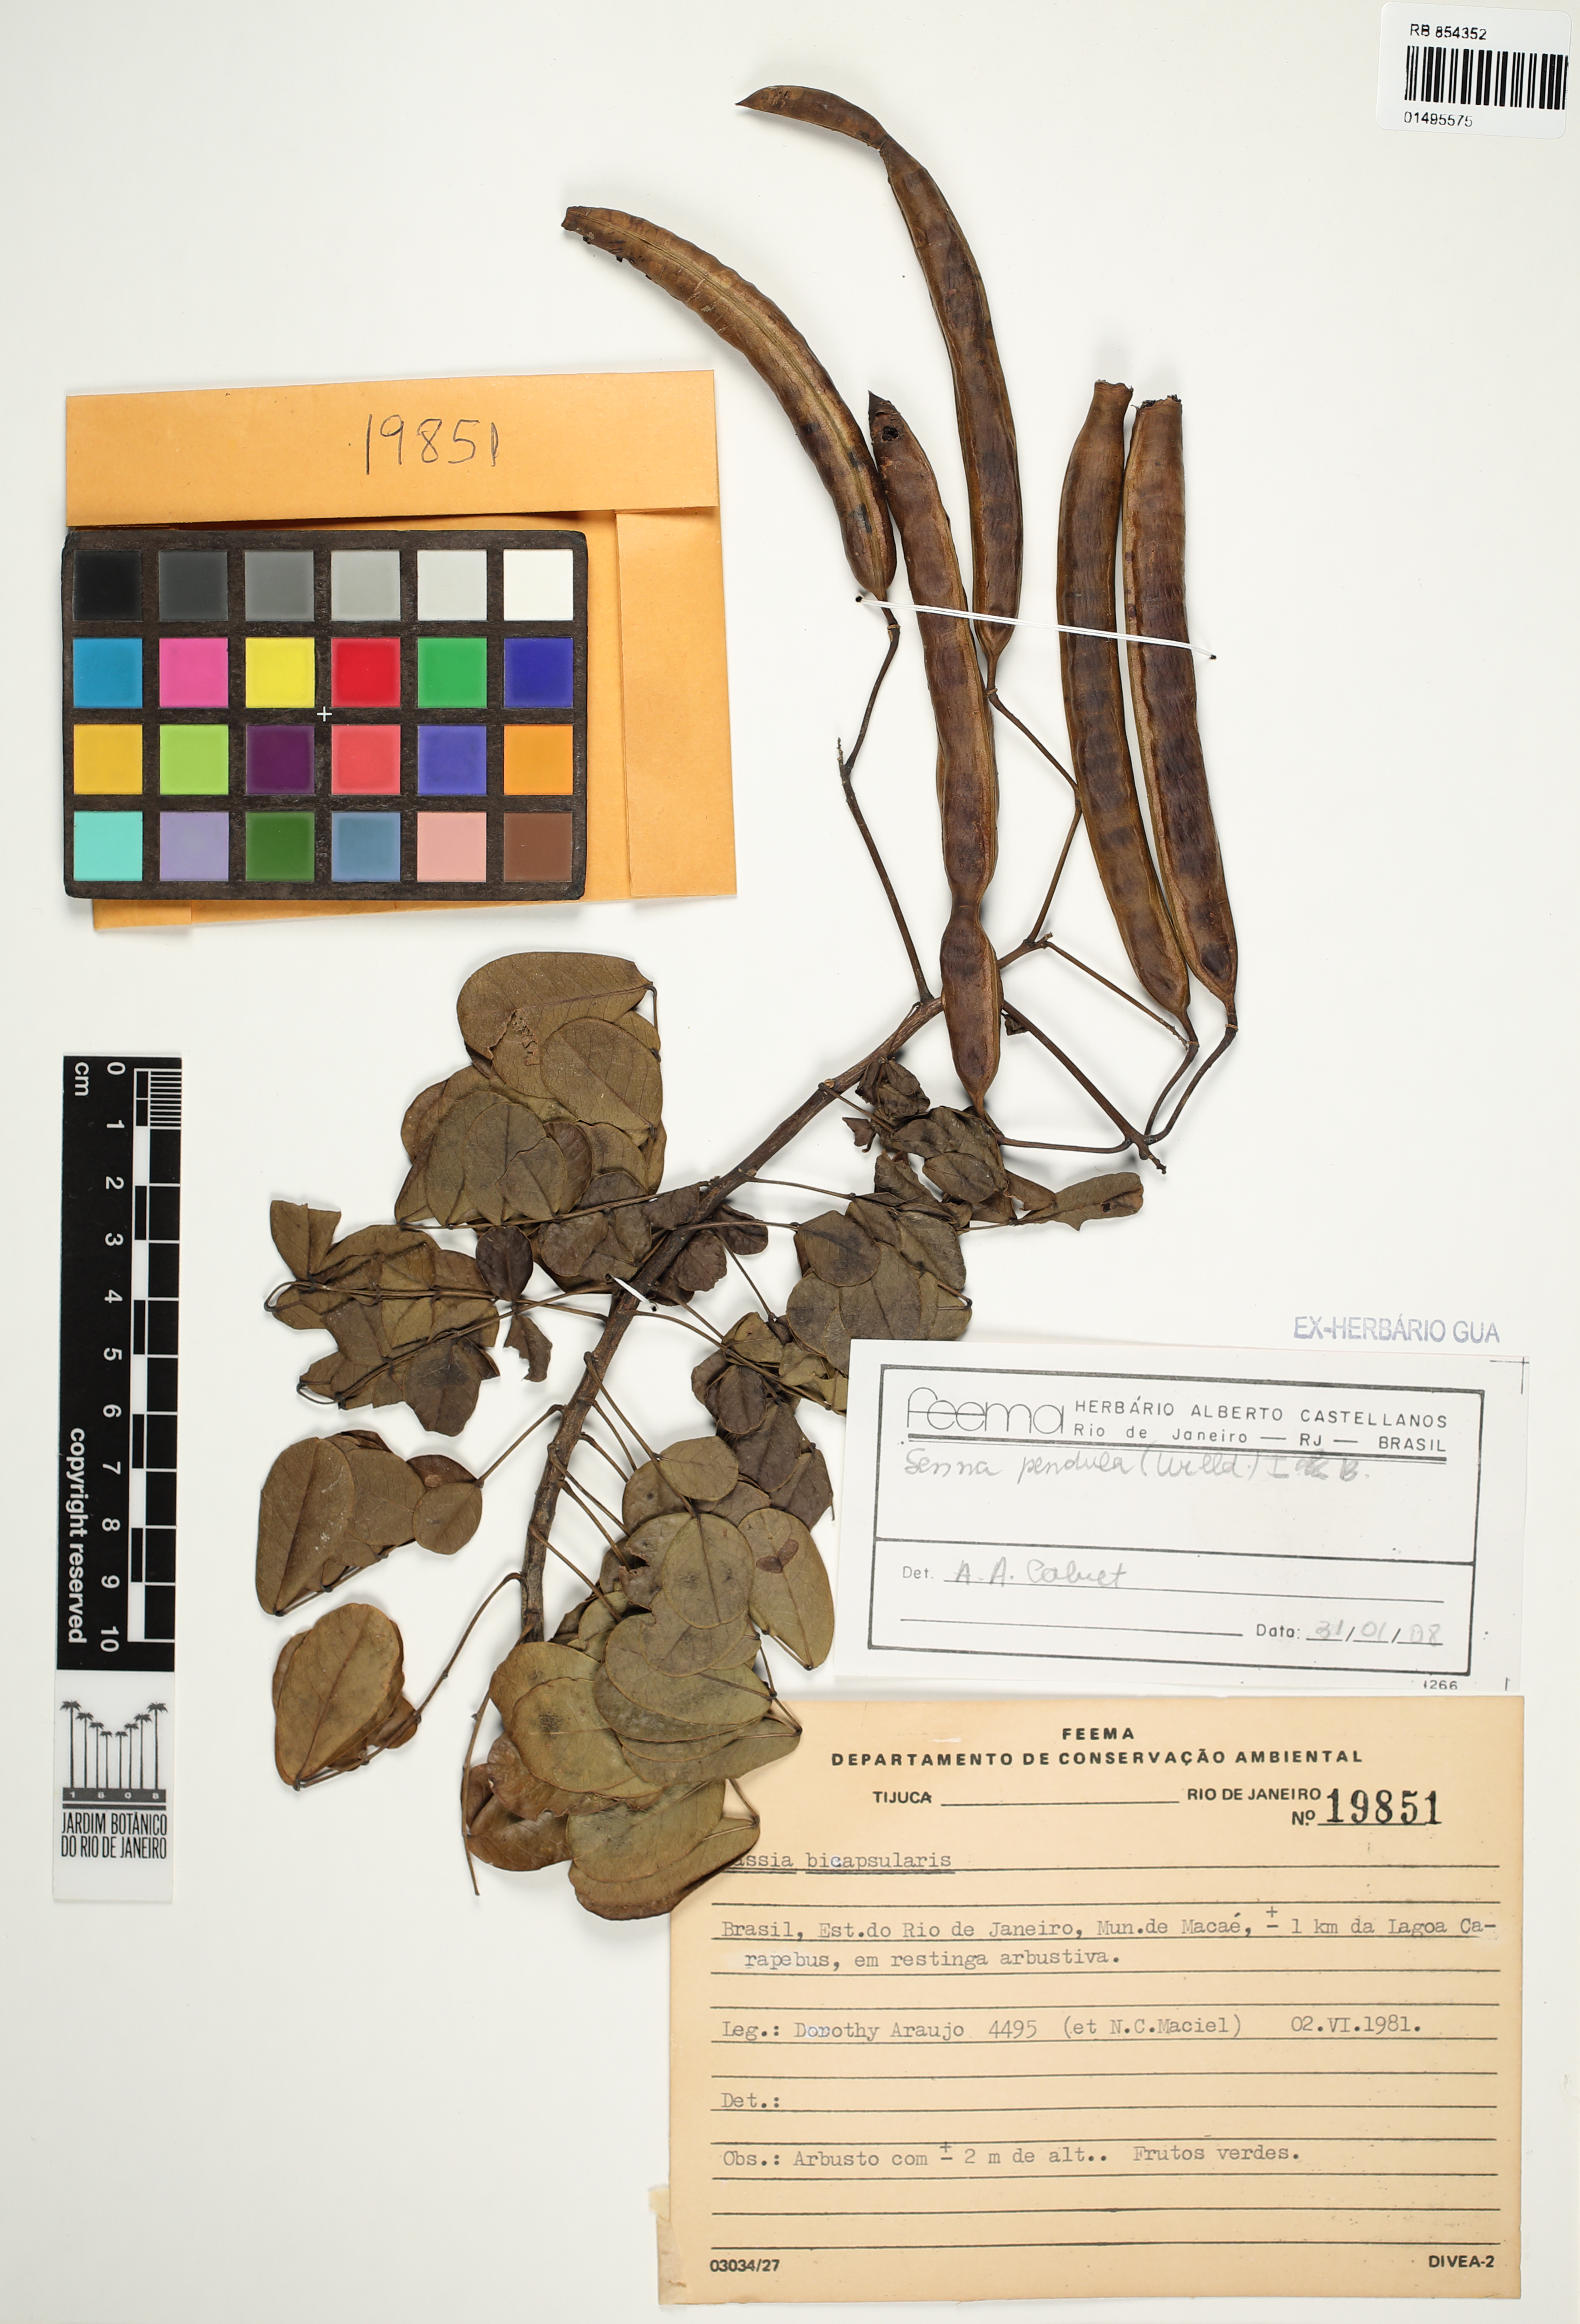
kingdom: Plantae
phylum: Tracheophyta
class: Magnoliopsida
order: Fabales
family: Fabaceae
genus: Senna
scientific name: Senna pendula
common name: Easter cassia
